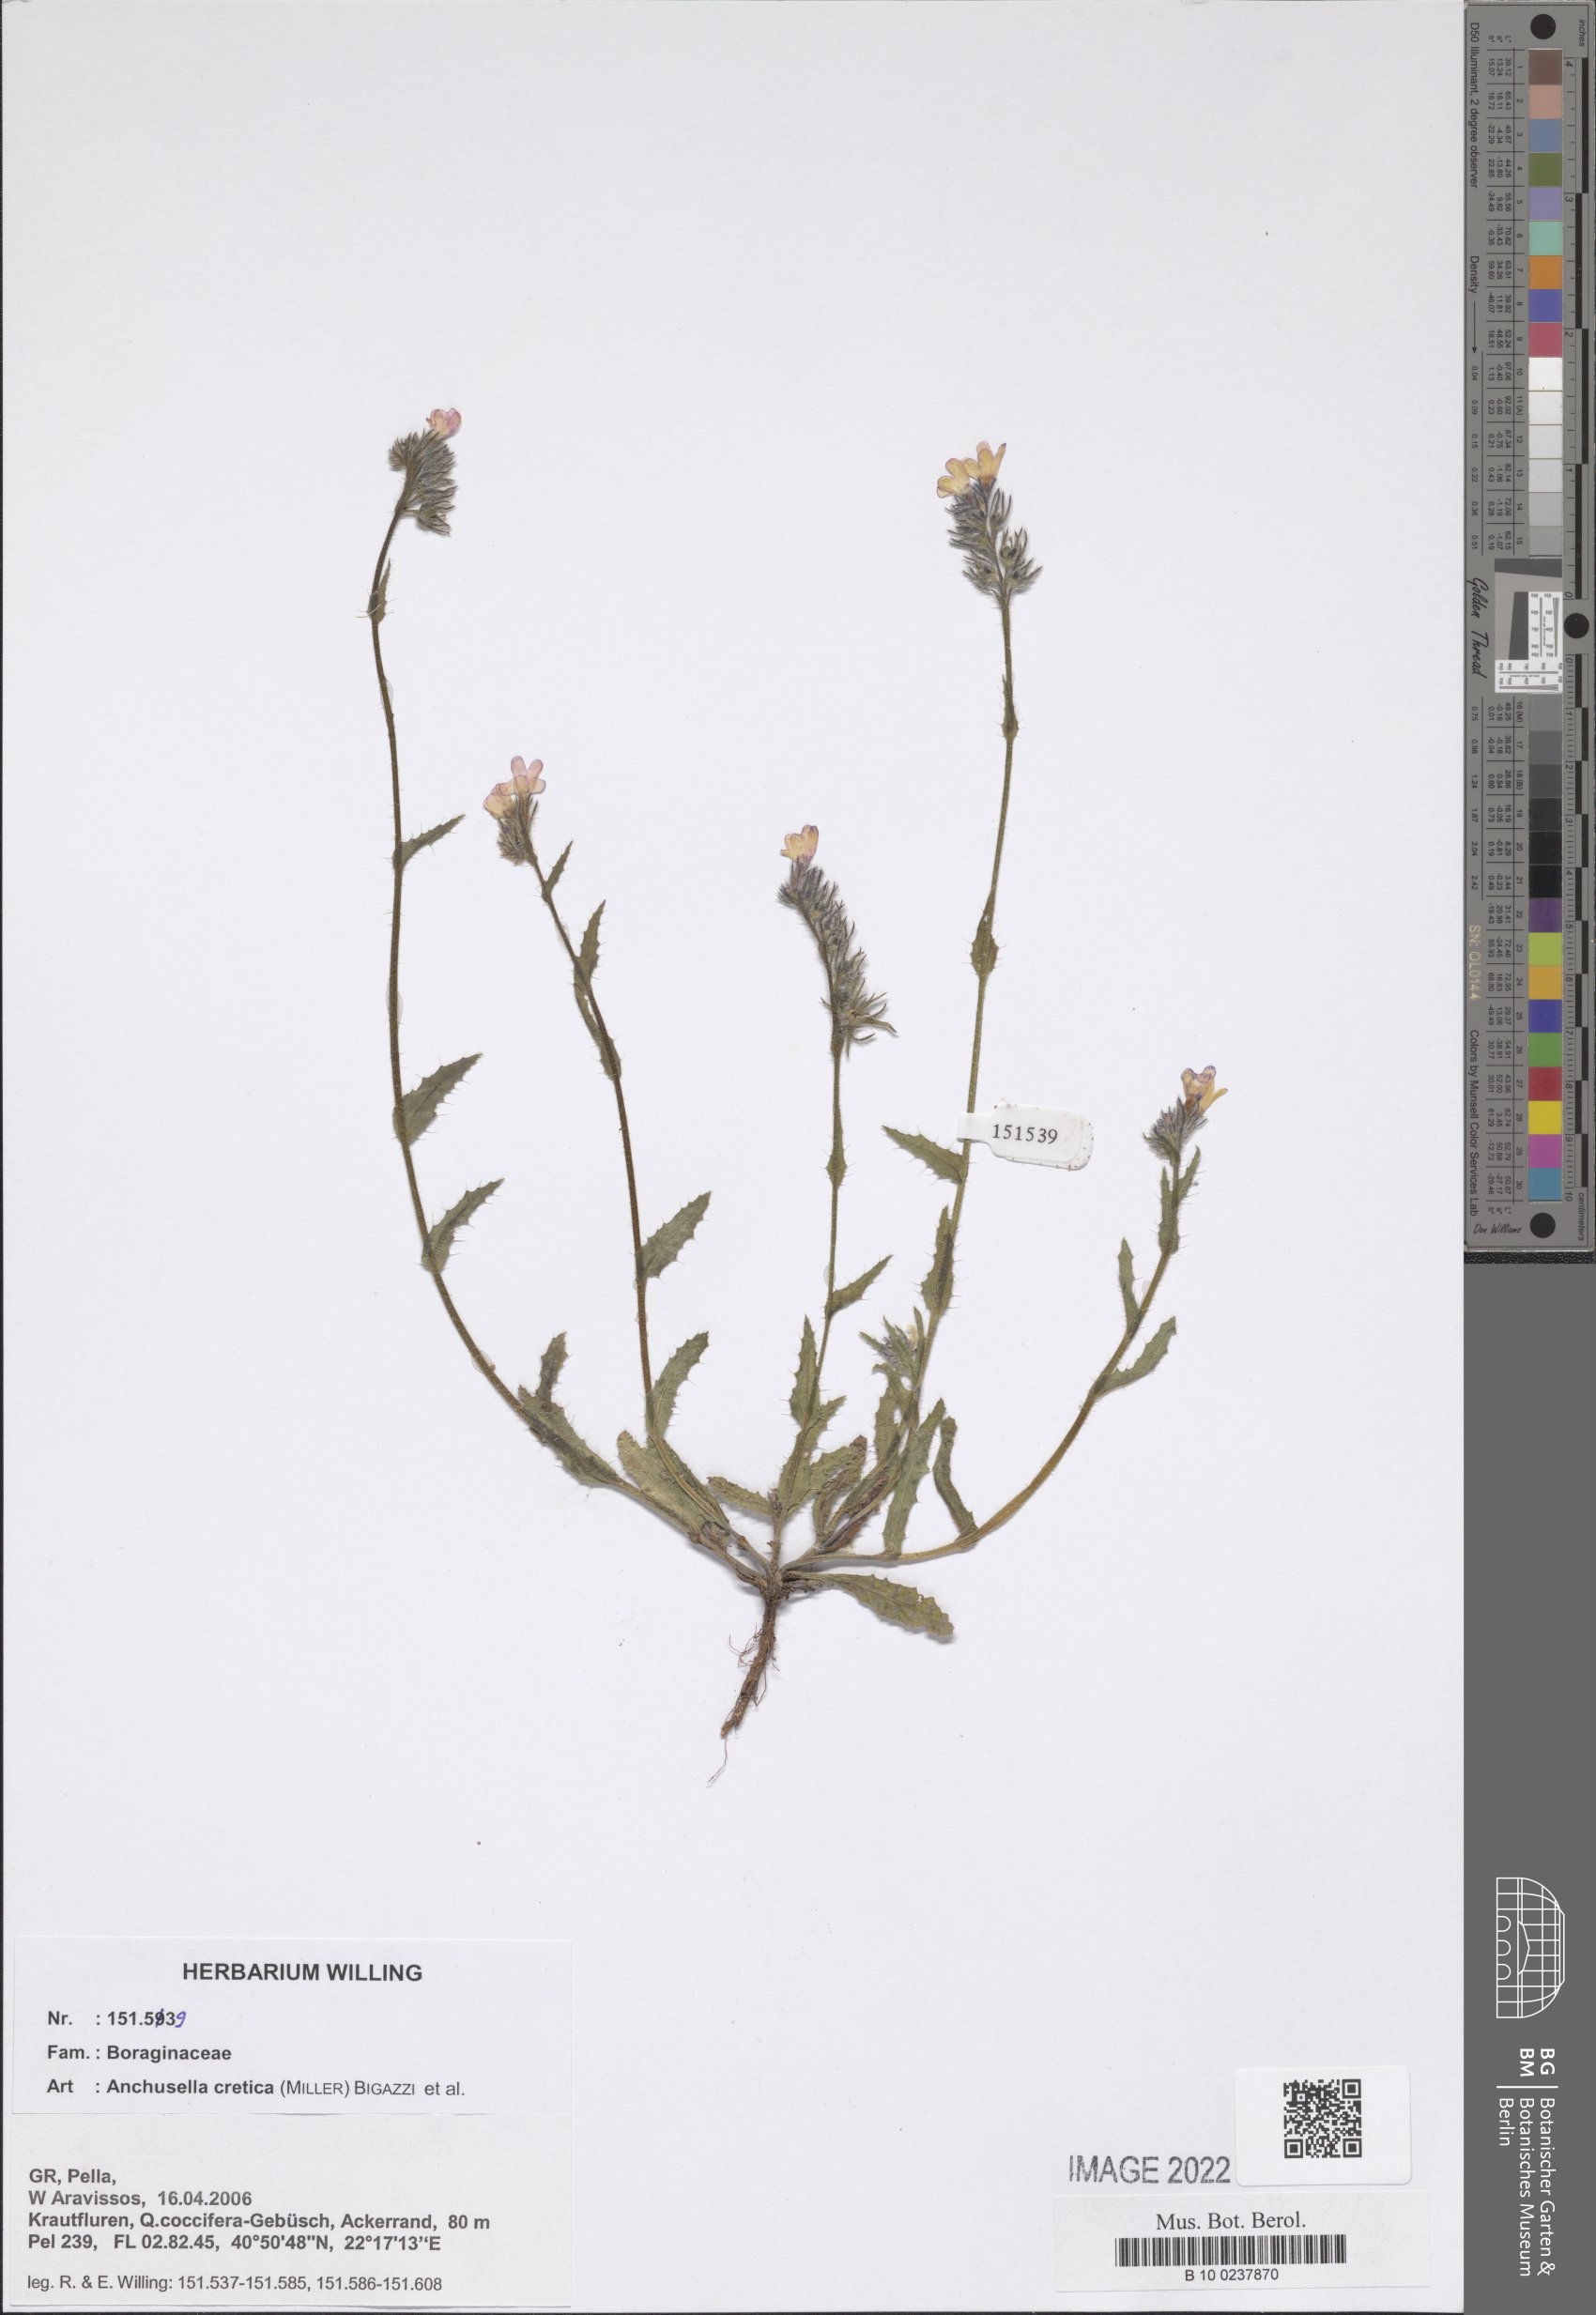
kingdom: Plantae
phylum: Tracheophyta
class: Magnoliopsida
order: Boraginales
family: Boraginaceae
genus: Lycopsis
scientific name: Lycopsis arvensis
